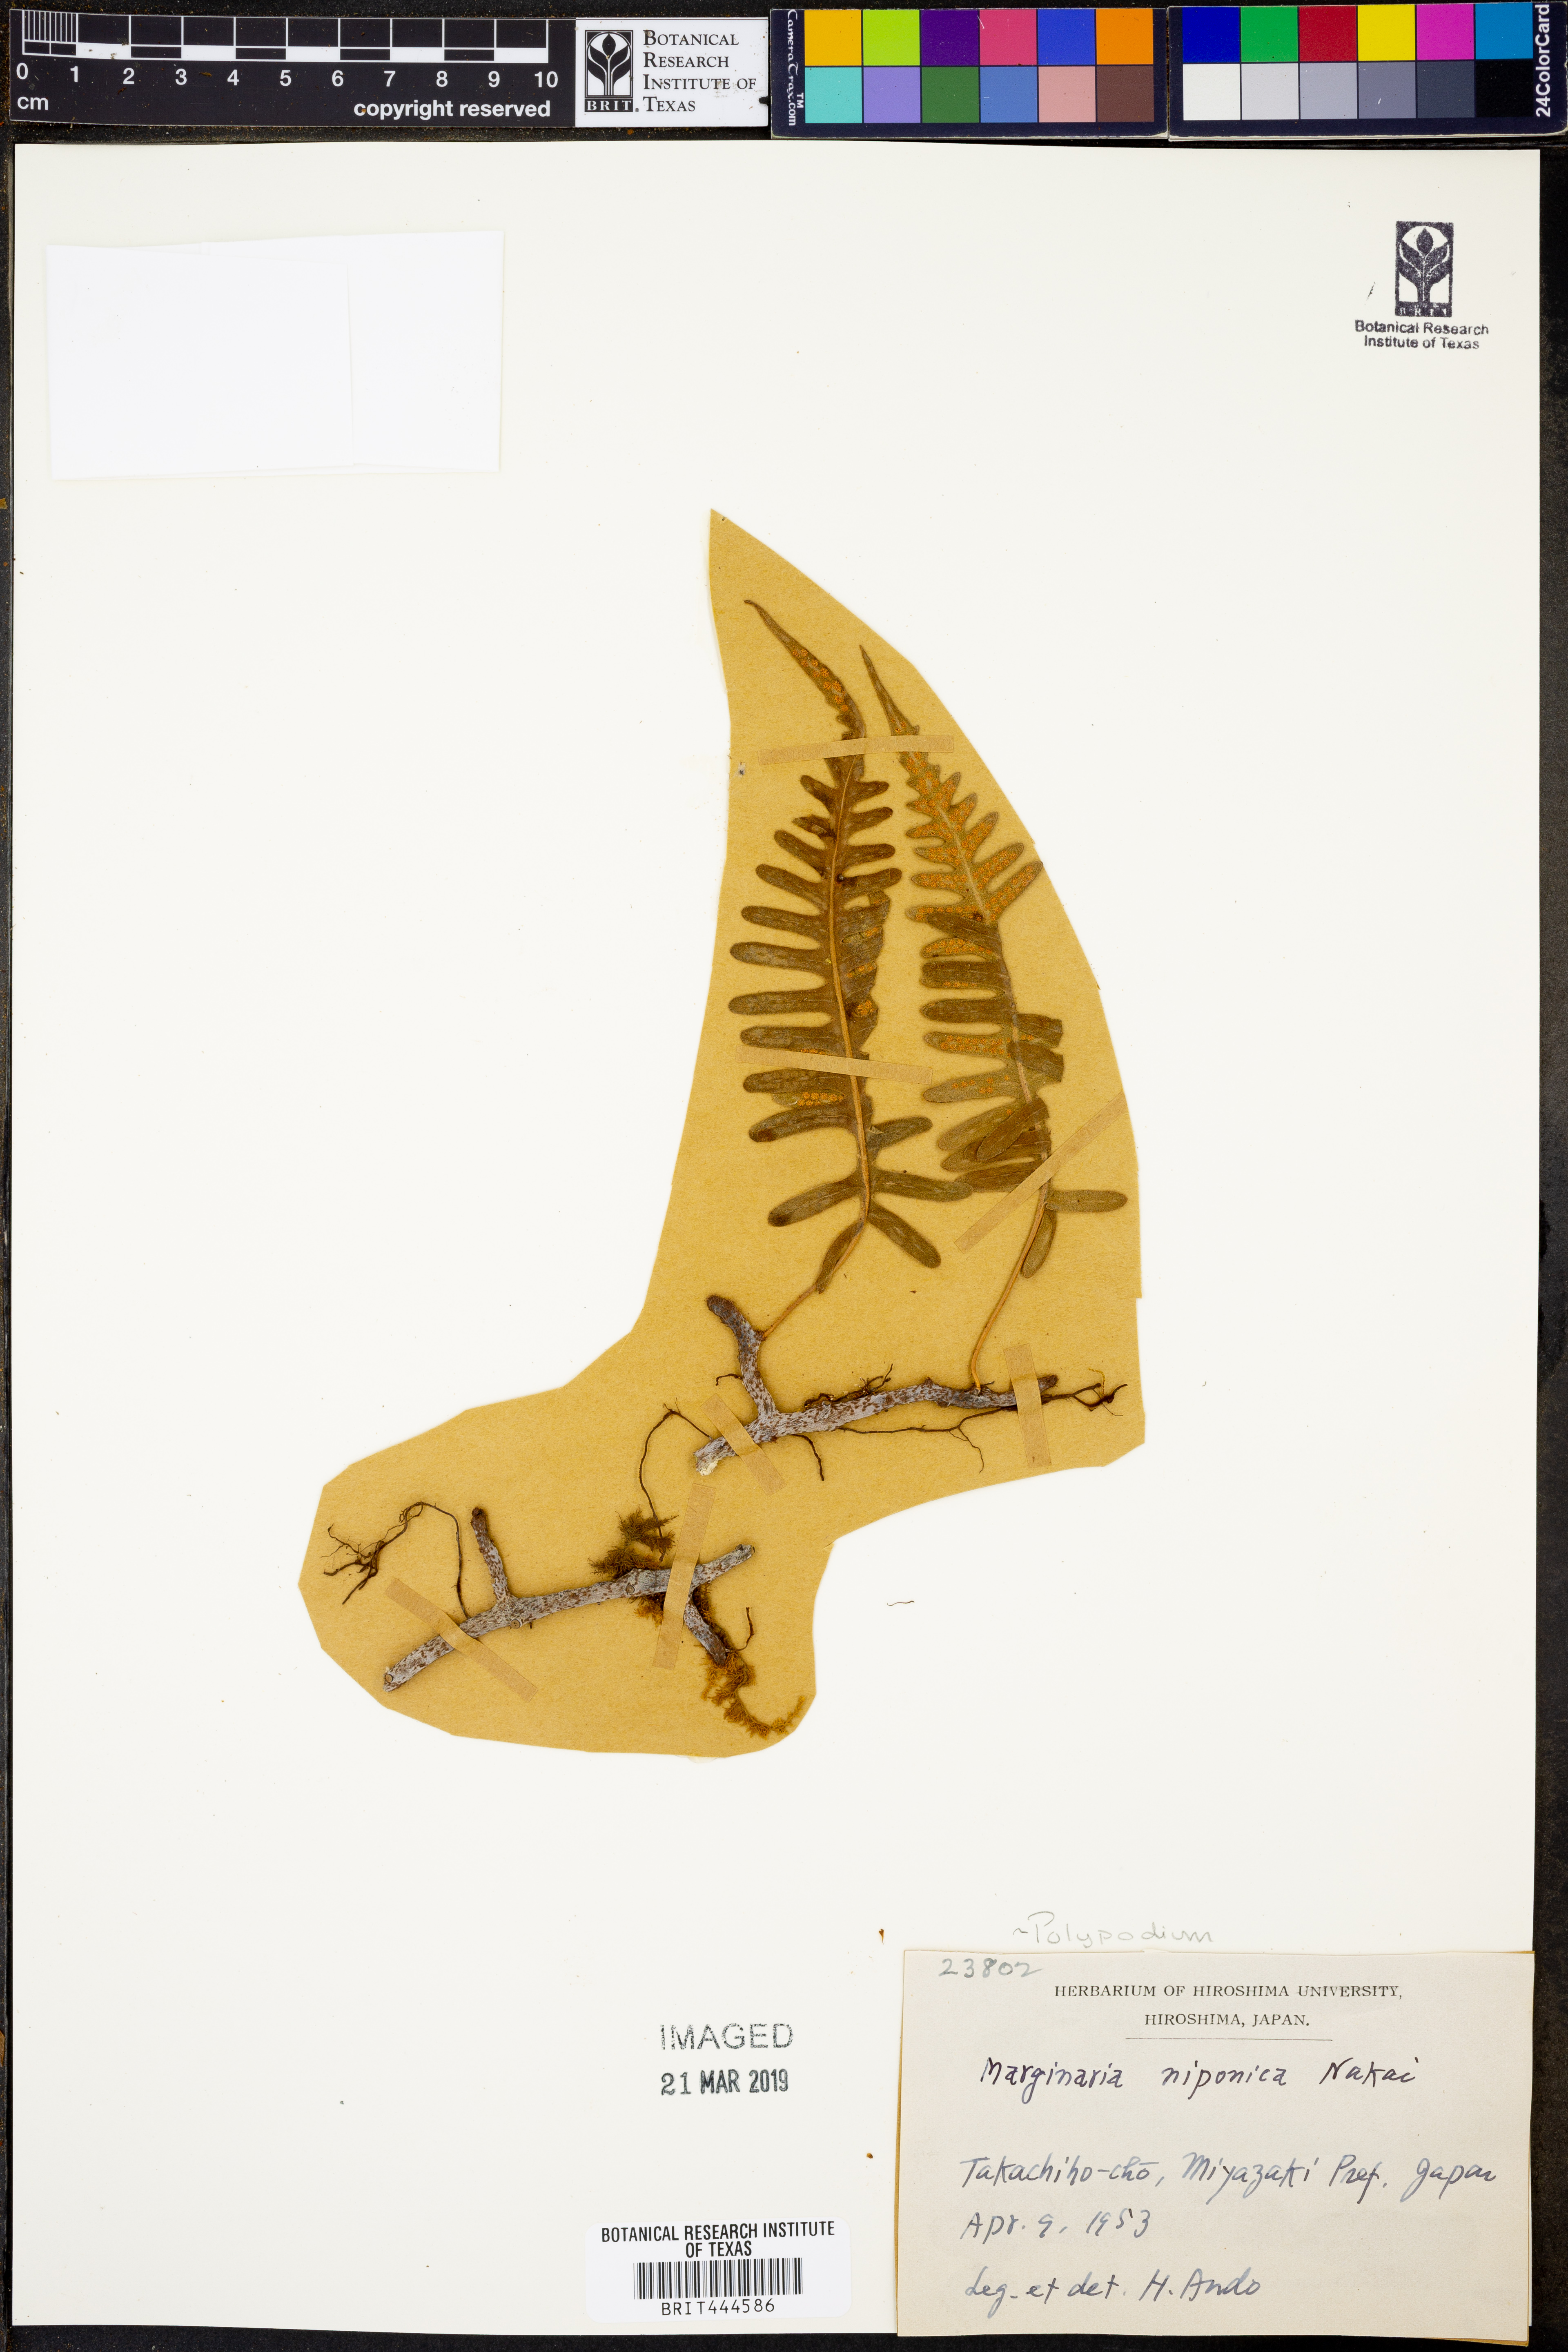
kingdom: Plantae
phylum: Tracheophyta
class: Polypodiopsida
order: Polypodiales
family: Polypodiaceae
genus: Polypodium
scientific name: Polypodium
